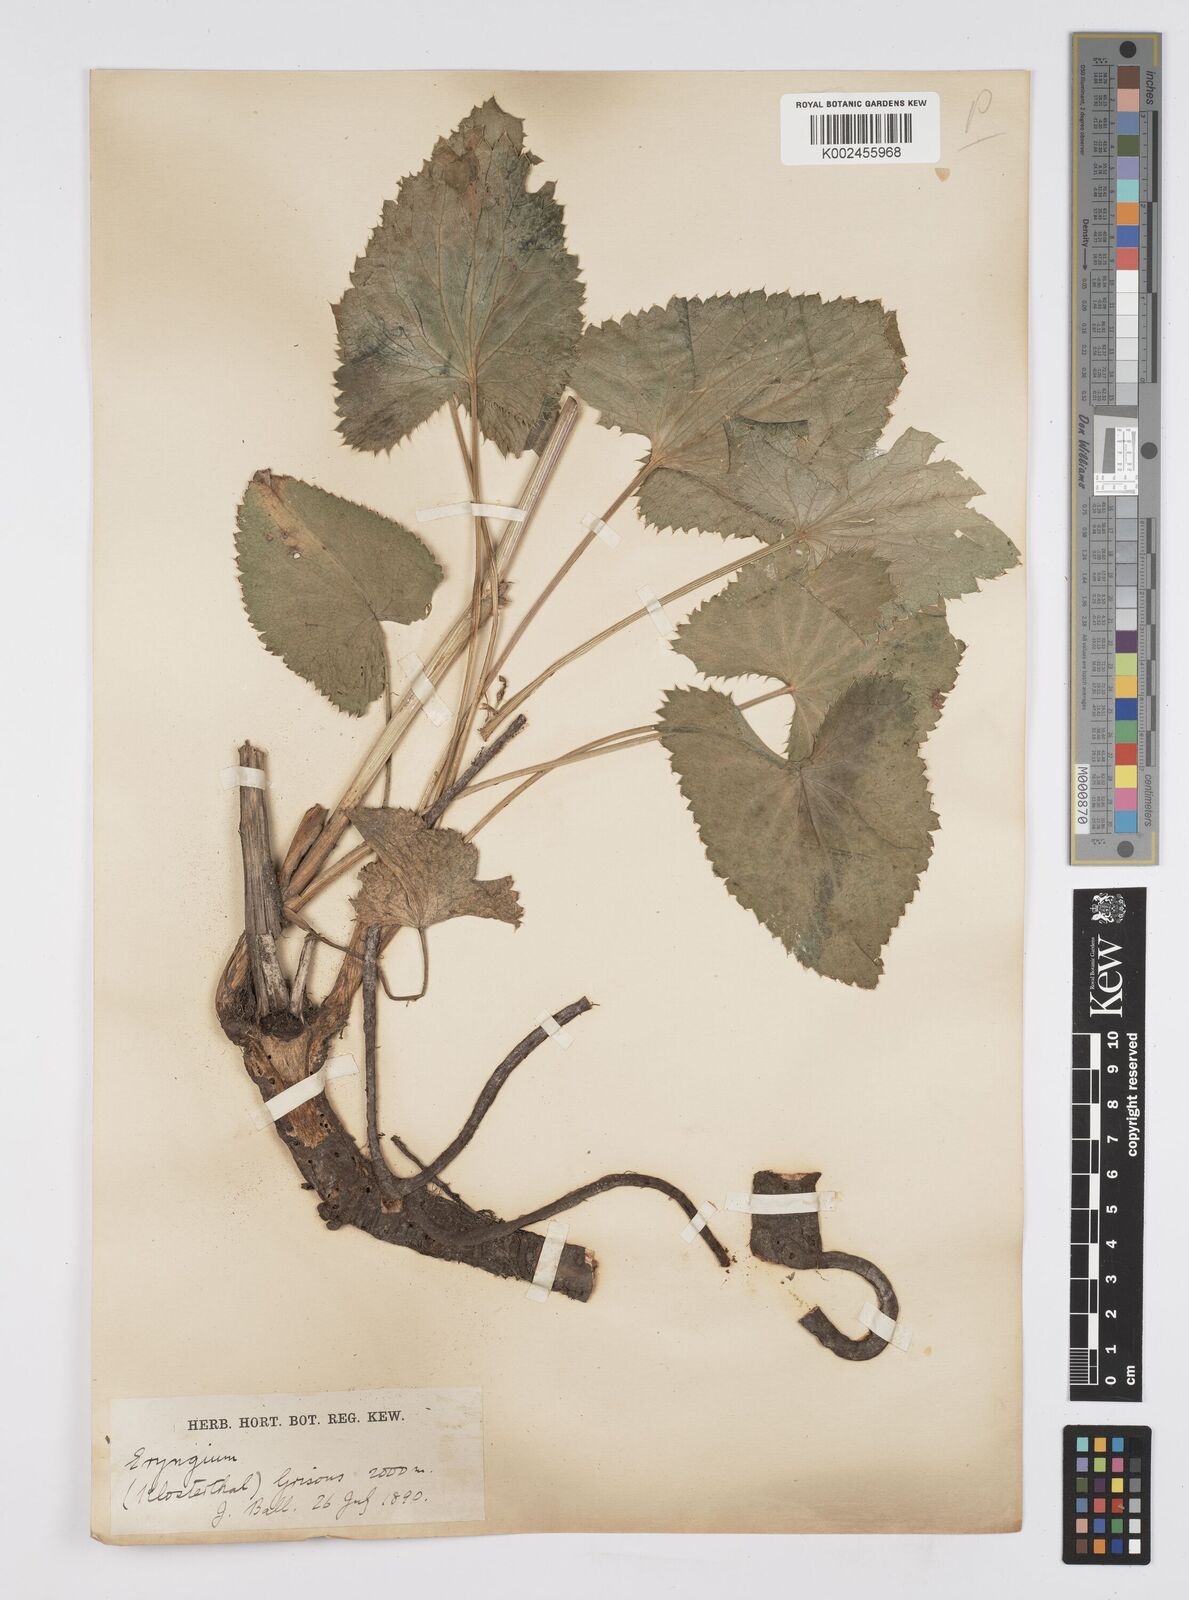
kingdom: Plantae
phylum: Tracheophyta
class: Magnoliopsida
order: Apiales
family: Apiaceae
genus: Eryngium
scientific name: Eryngium alpinum
